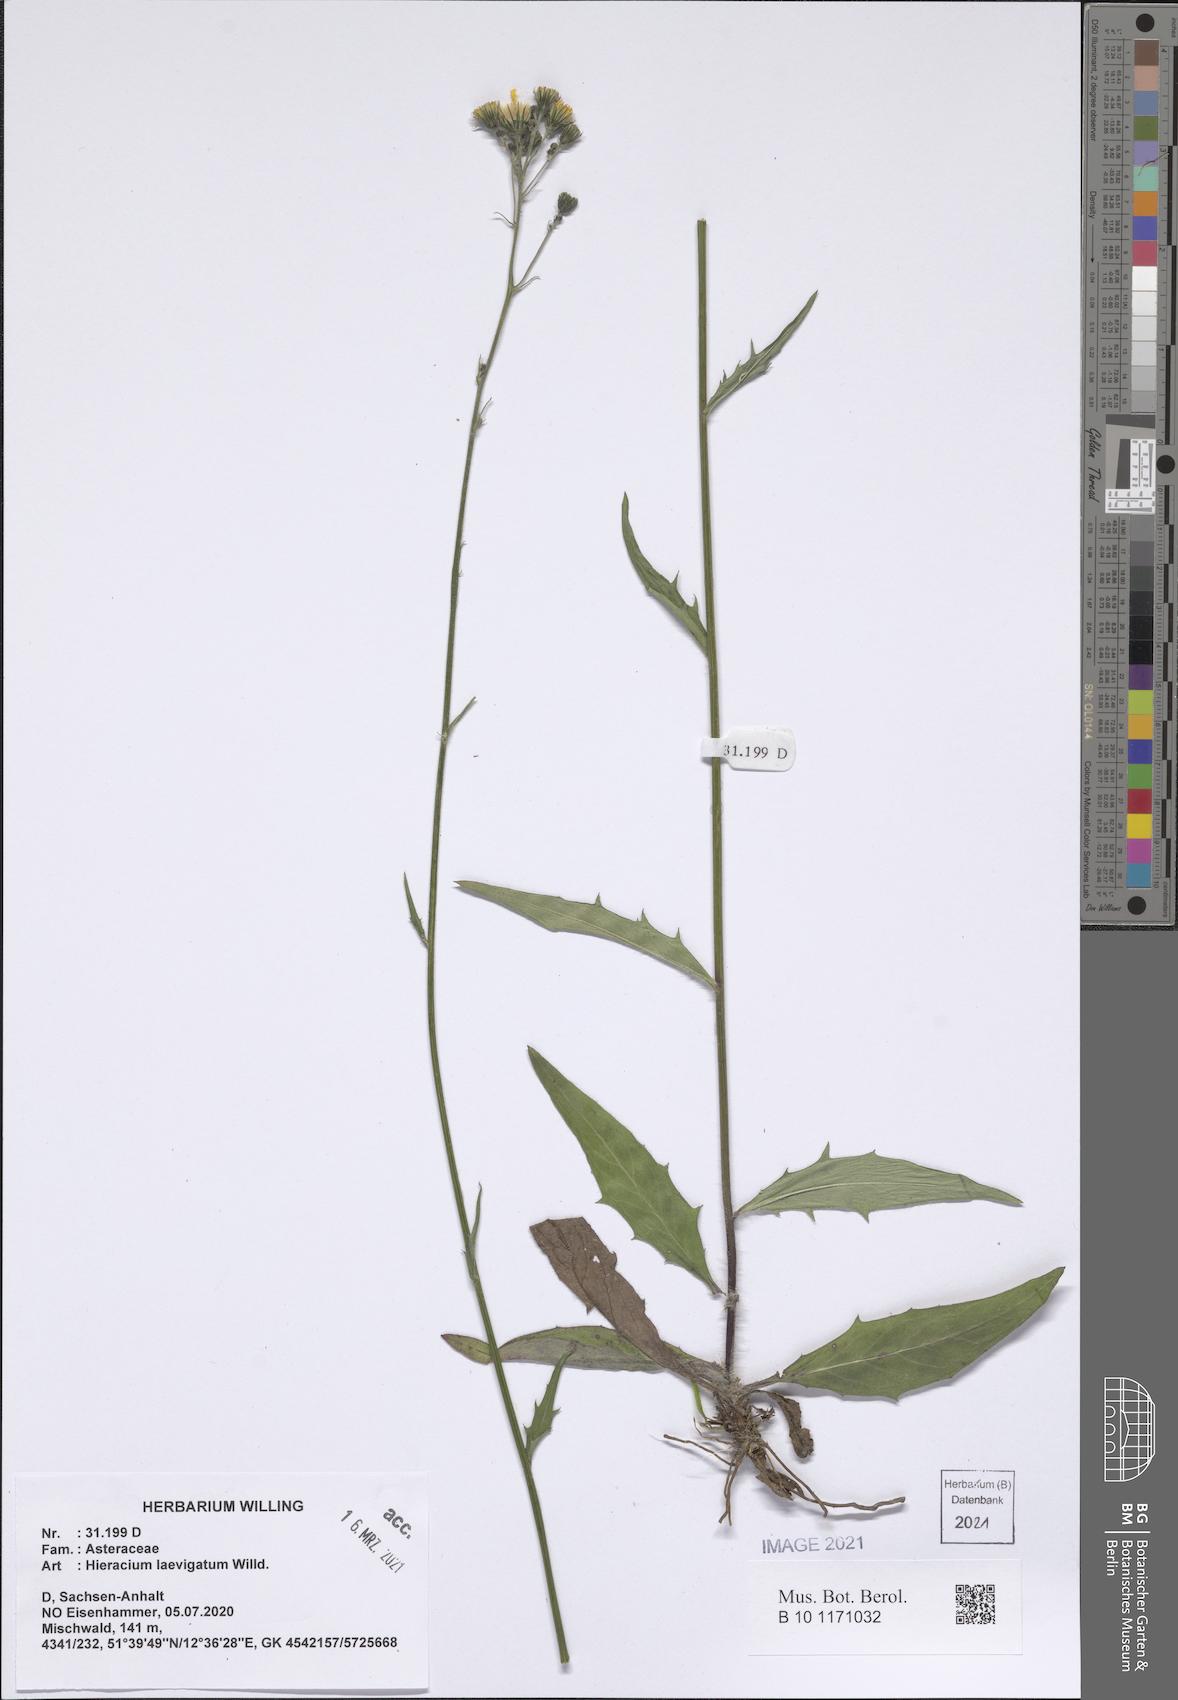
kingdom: Plantae
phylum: Tracheophyta
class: Magnoliopsida
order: Asterales
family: Asteraceae
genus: Hieracium
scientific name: Hieracium laevigatum
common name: Smooth hawkweed
